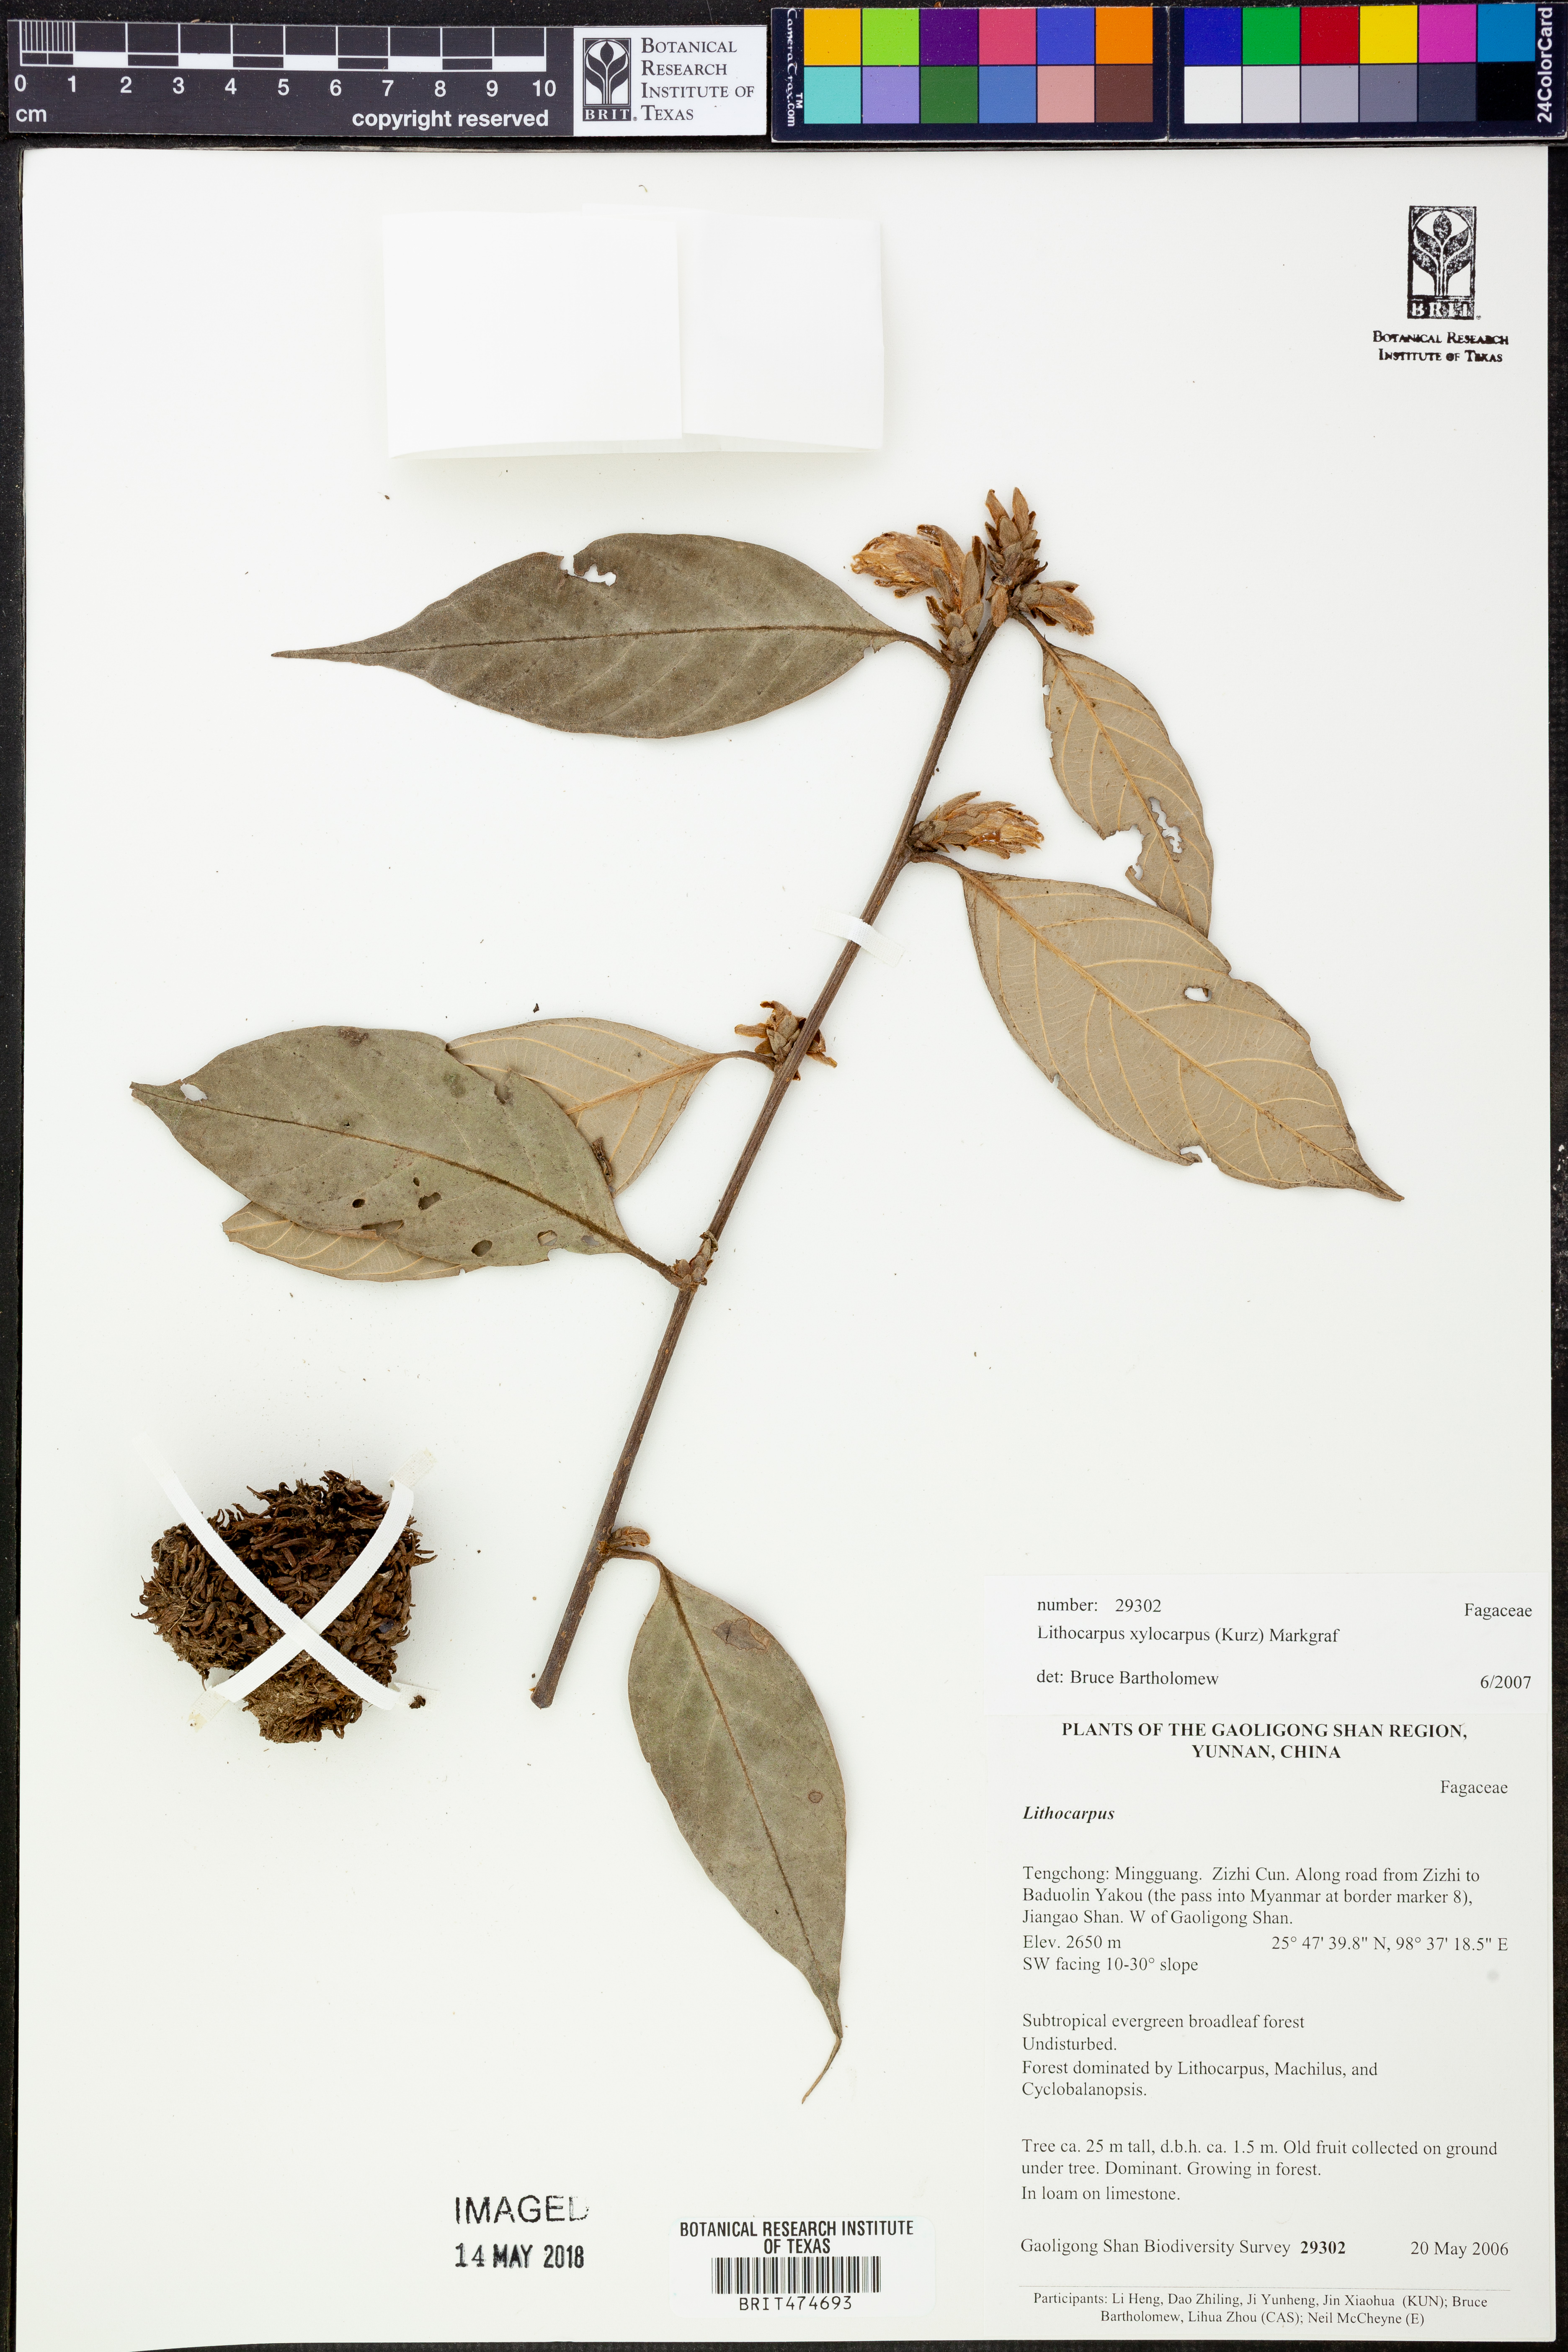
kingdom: Plantae
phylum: Tracheophyta
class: Magnoliopsida
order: Fagales
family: Fagaceae
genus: Lithocarpus
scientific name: Lithocarpus xylocarpus
